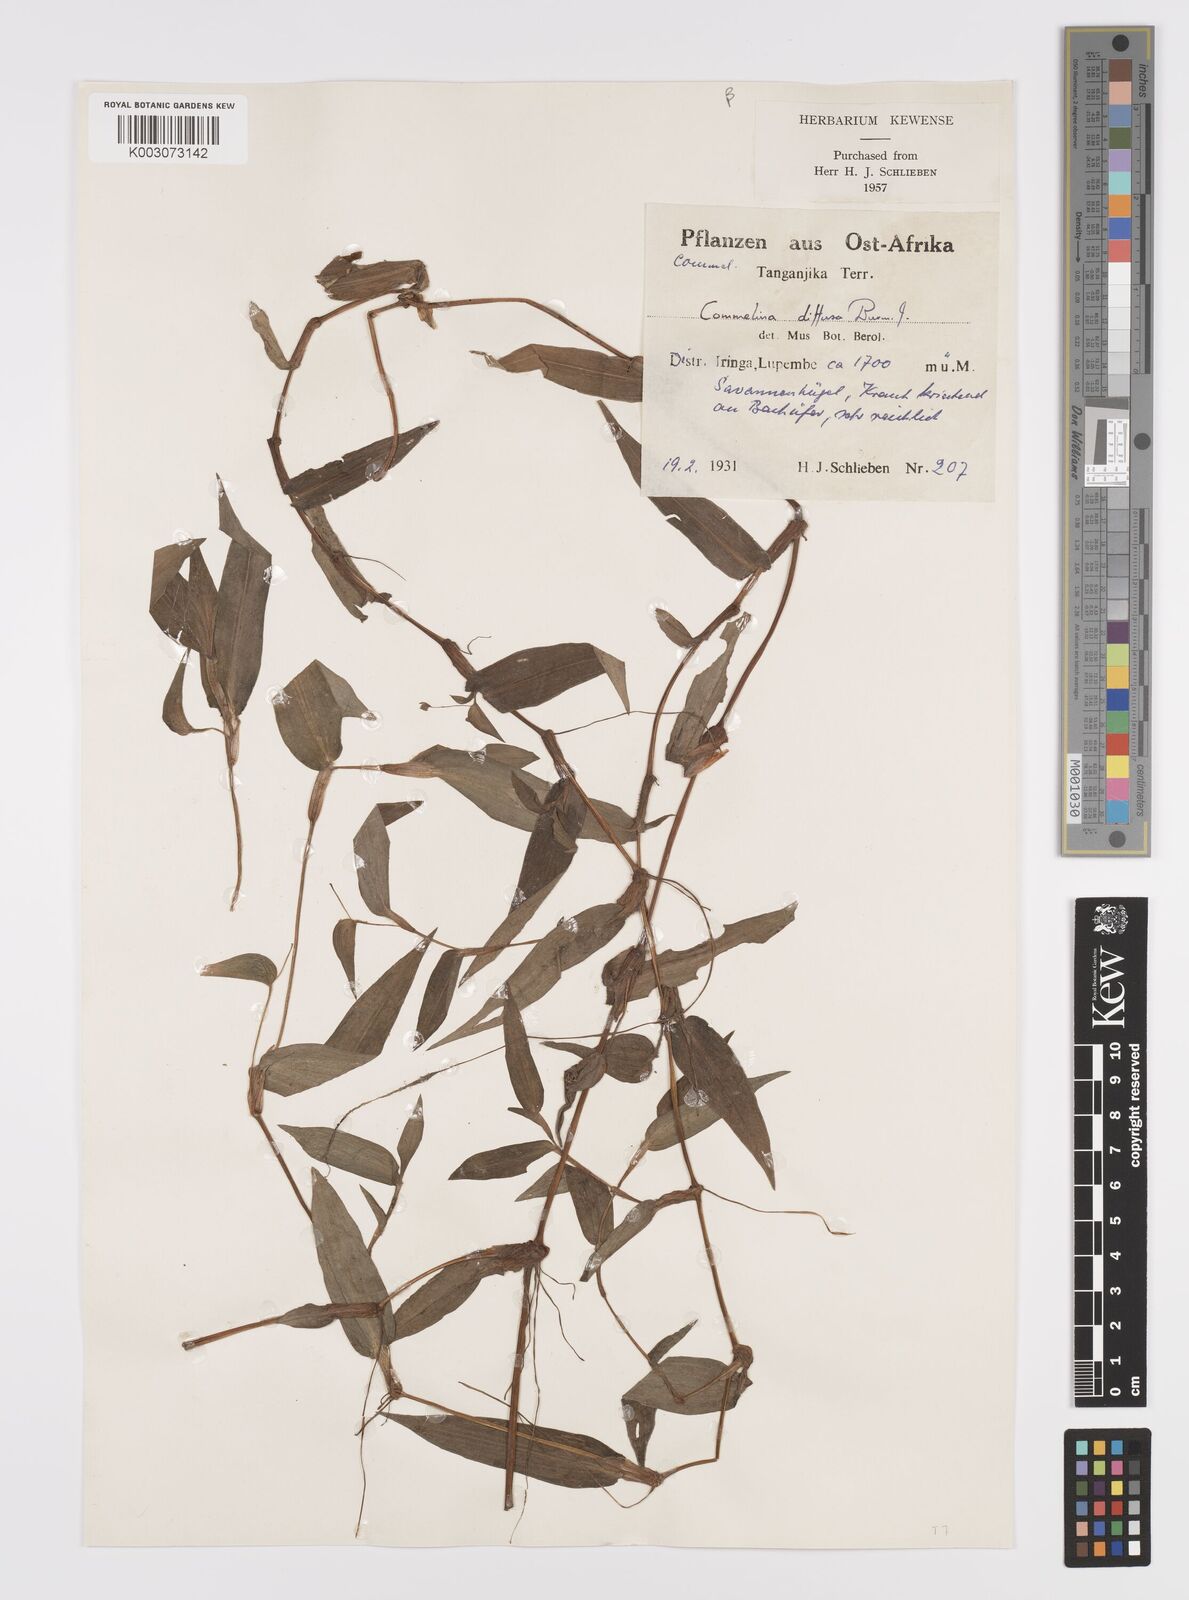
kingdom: Plantae
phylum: Tracheophyta
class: Liliopsida
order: Commelinales
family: Commelinaceae
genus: Commelina
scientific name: Commelina diffusa
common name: Climbing dayflower
